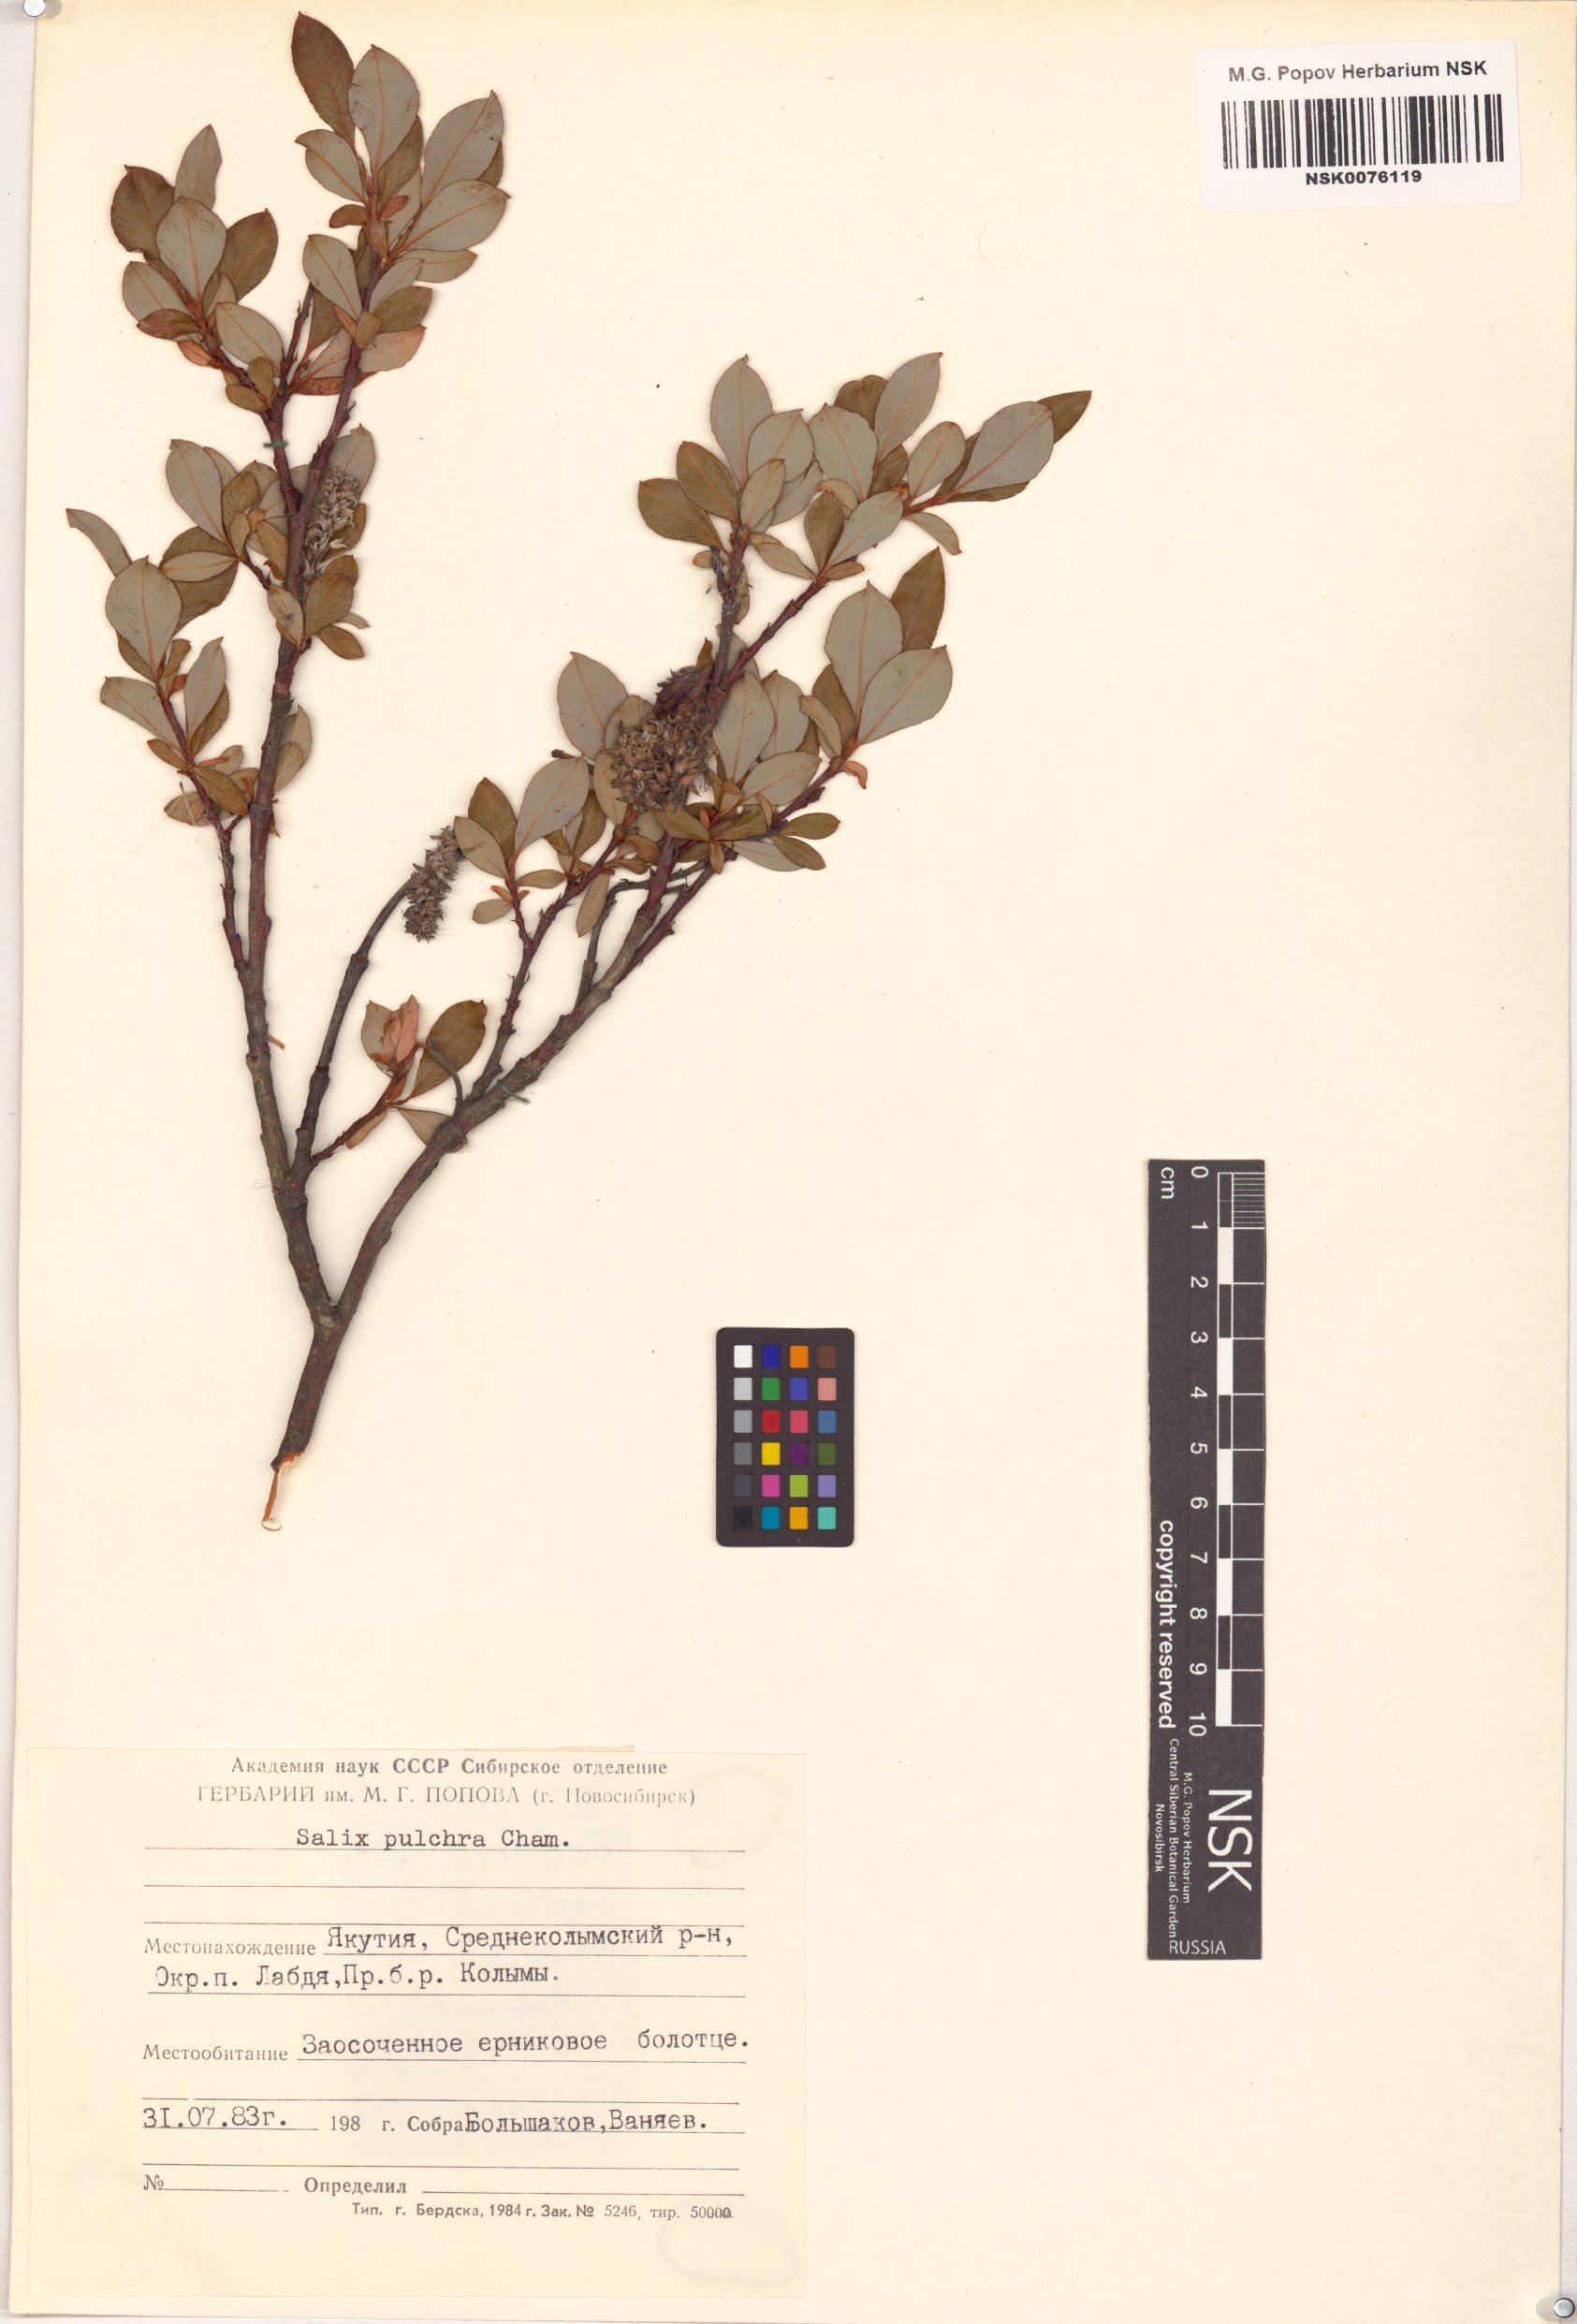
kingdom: Plantae
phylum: Tracheophyta
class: Magnoliopsida
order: Malpighiales
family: Salicaceae
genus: Salix
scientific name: Salix pulchra
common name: Diamond-leaved willow
